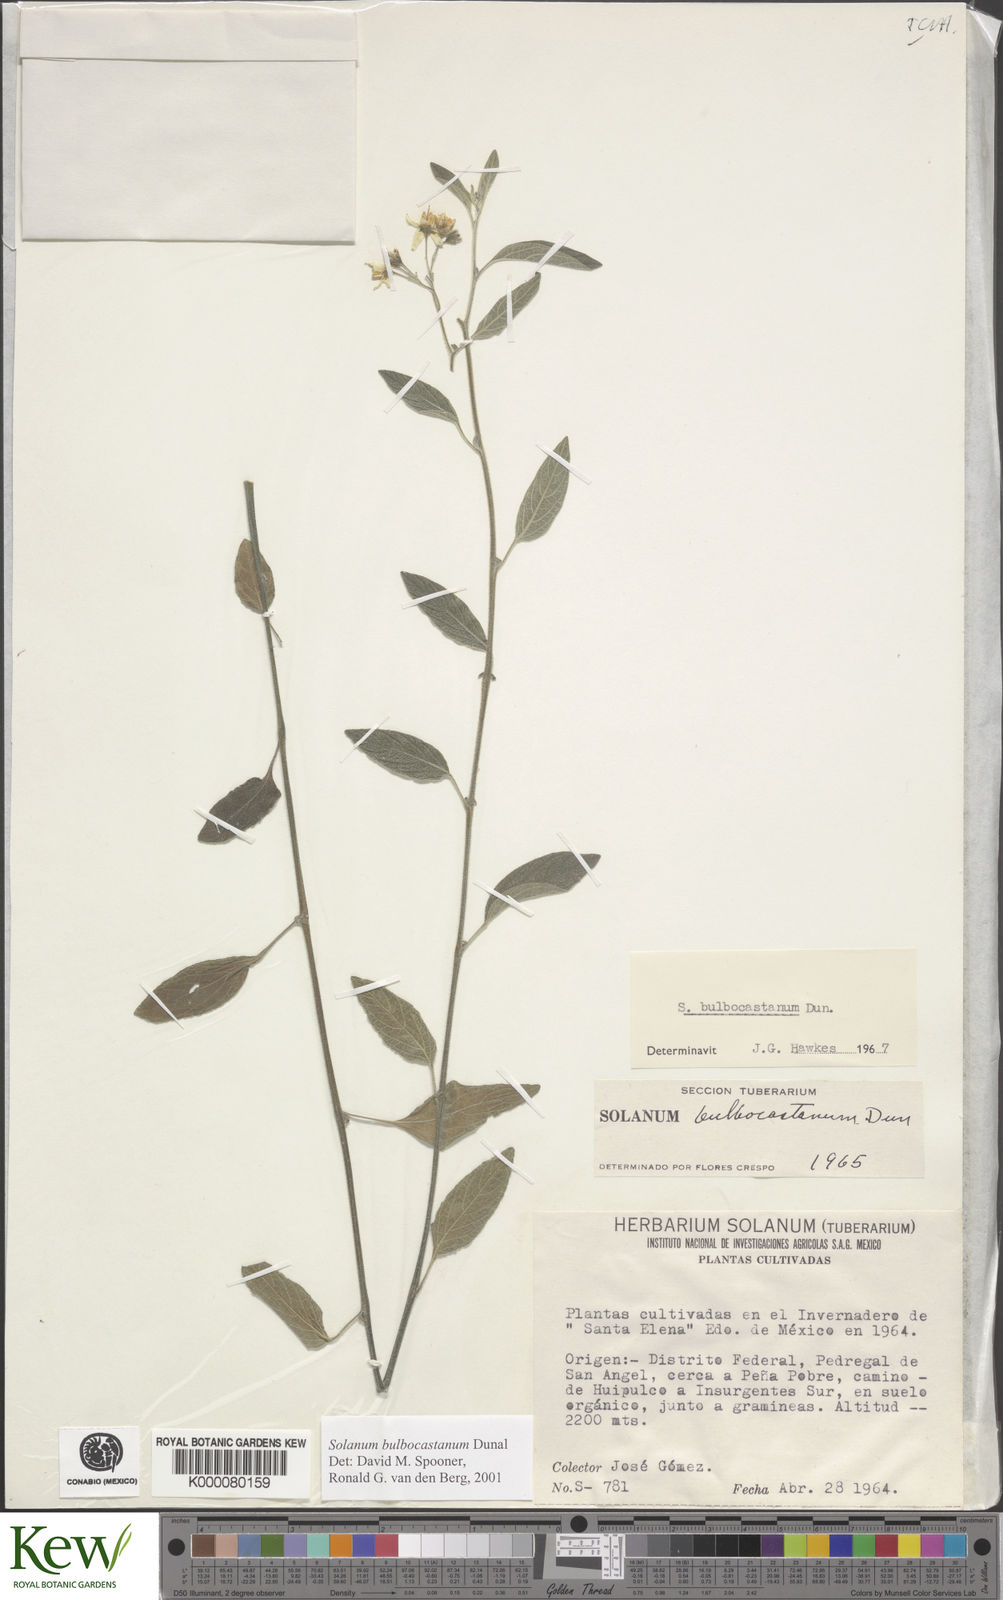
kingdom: Plantae
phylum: Tracheophyta
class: Magnoliopsida
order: Solanales
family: Solanaceae
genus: Solanum
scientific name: Solanum bulbocastanum
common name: Ornamental nightshade
